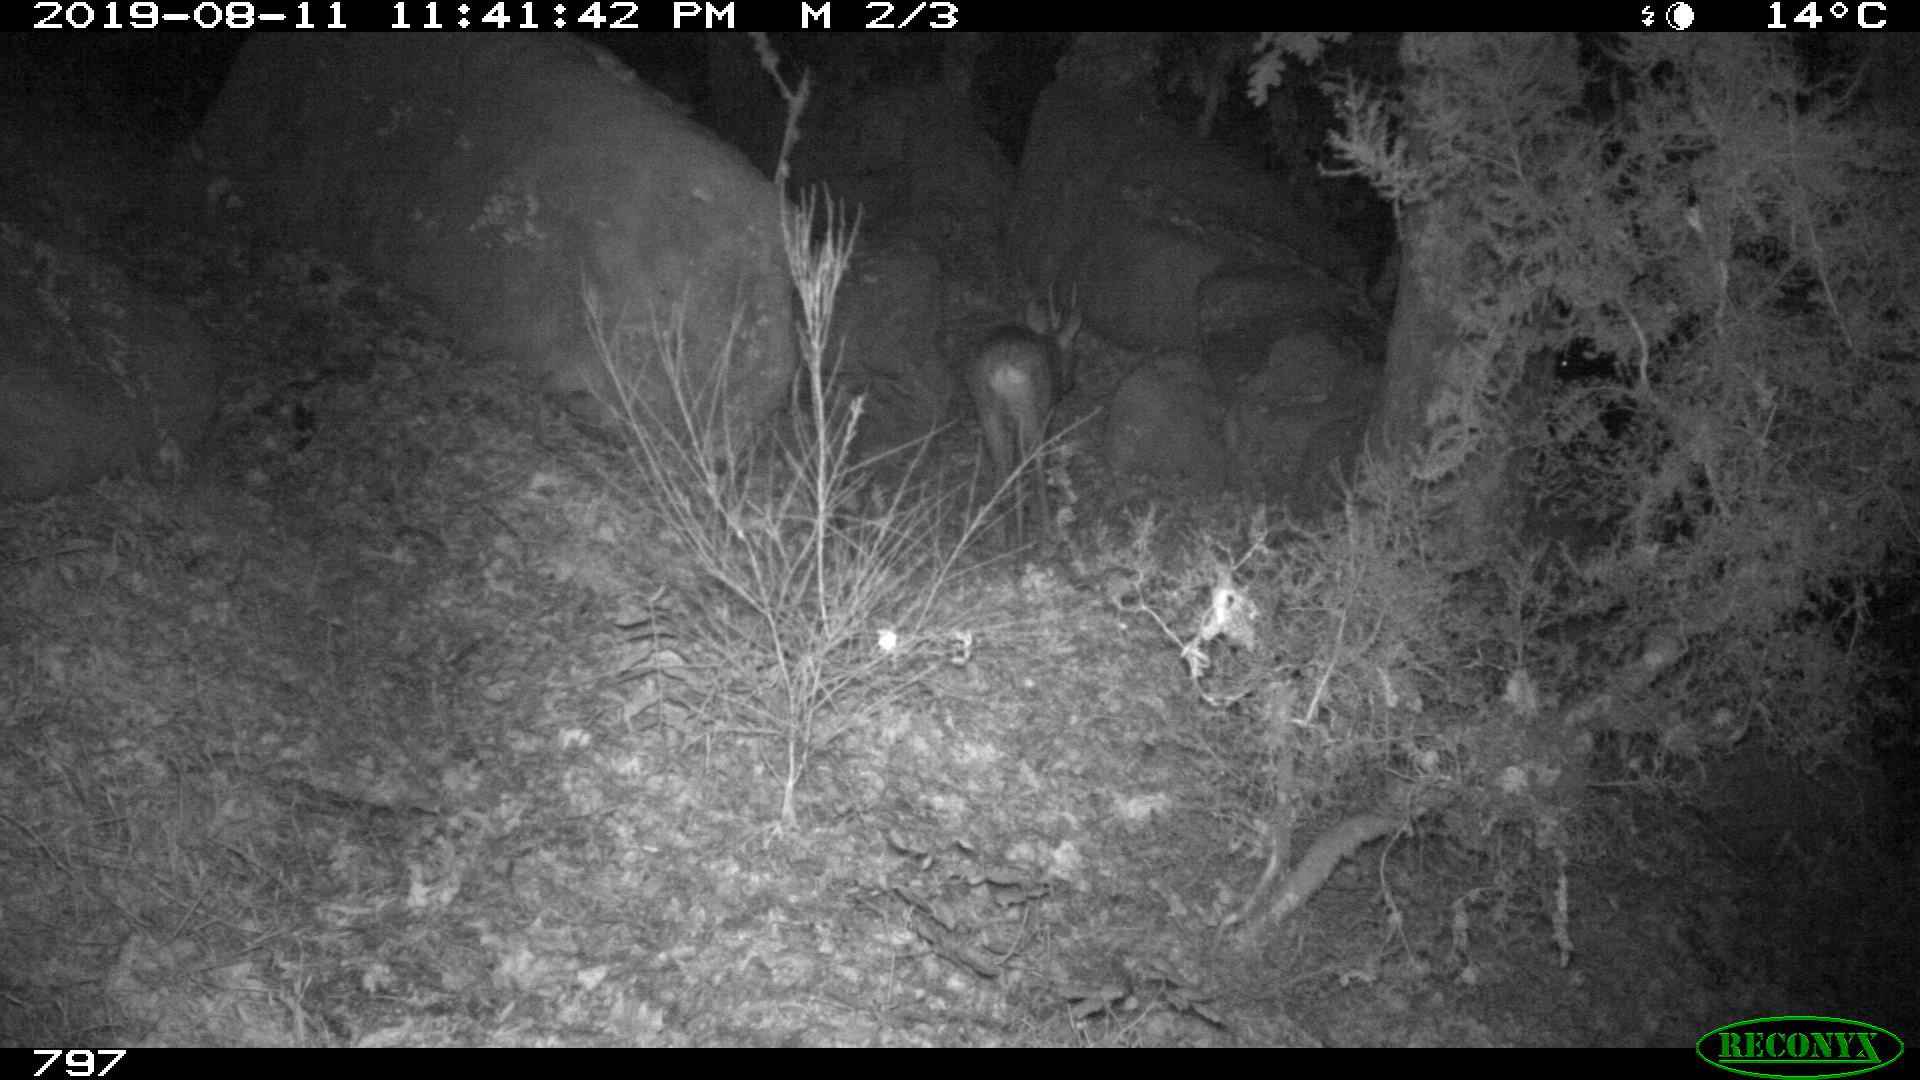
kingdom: Animalia
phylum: Chordata
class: Mammalia
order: Artiodactyla
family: Cervidae
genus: Capreolus
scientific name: Capreolus capreolus
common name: Western roe deer
